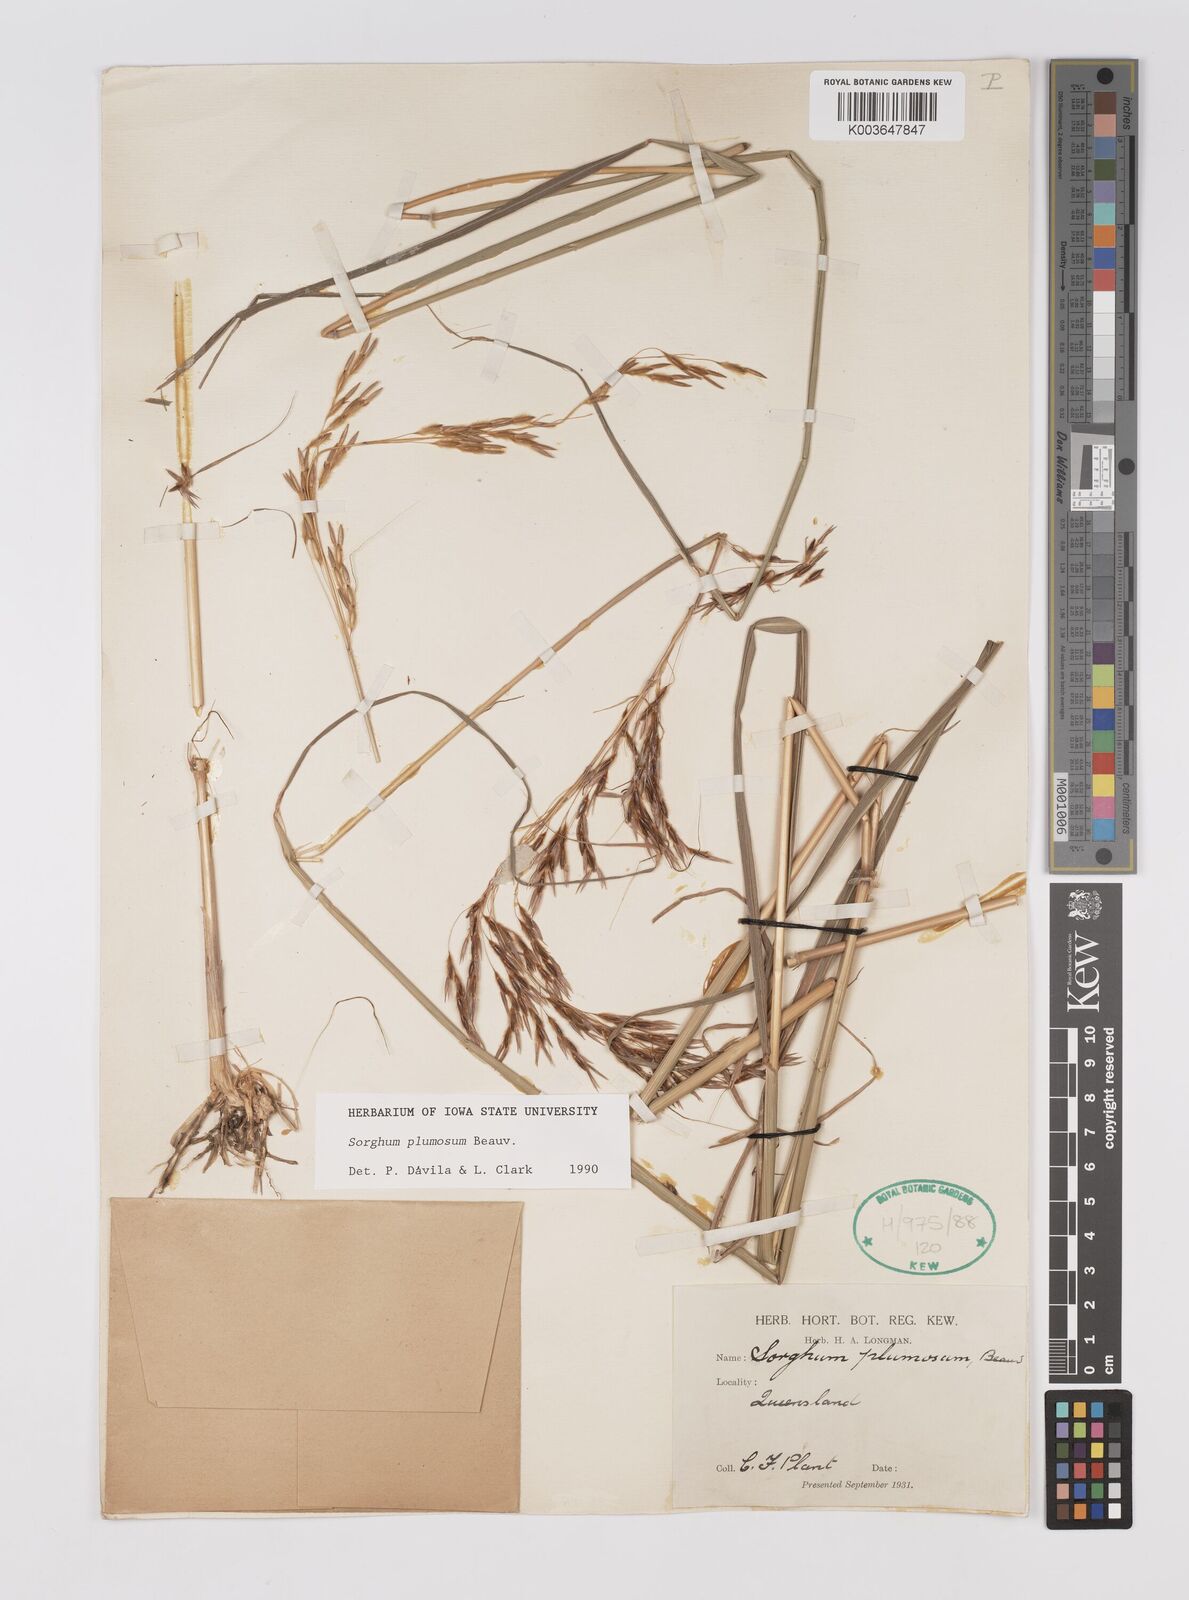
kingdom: Plantae
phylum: Tracheophyta
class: Liliopsida
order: Poales
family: Poaceae
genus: Sarga
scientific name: Sarga plumosa
